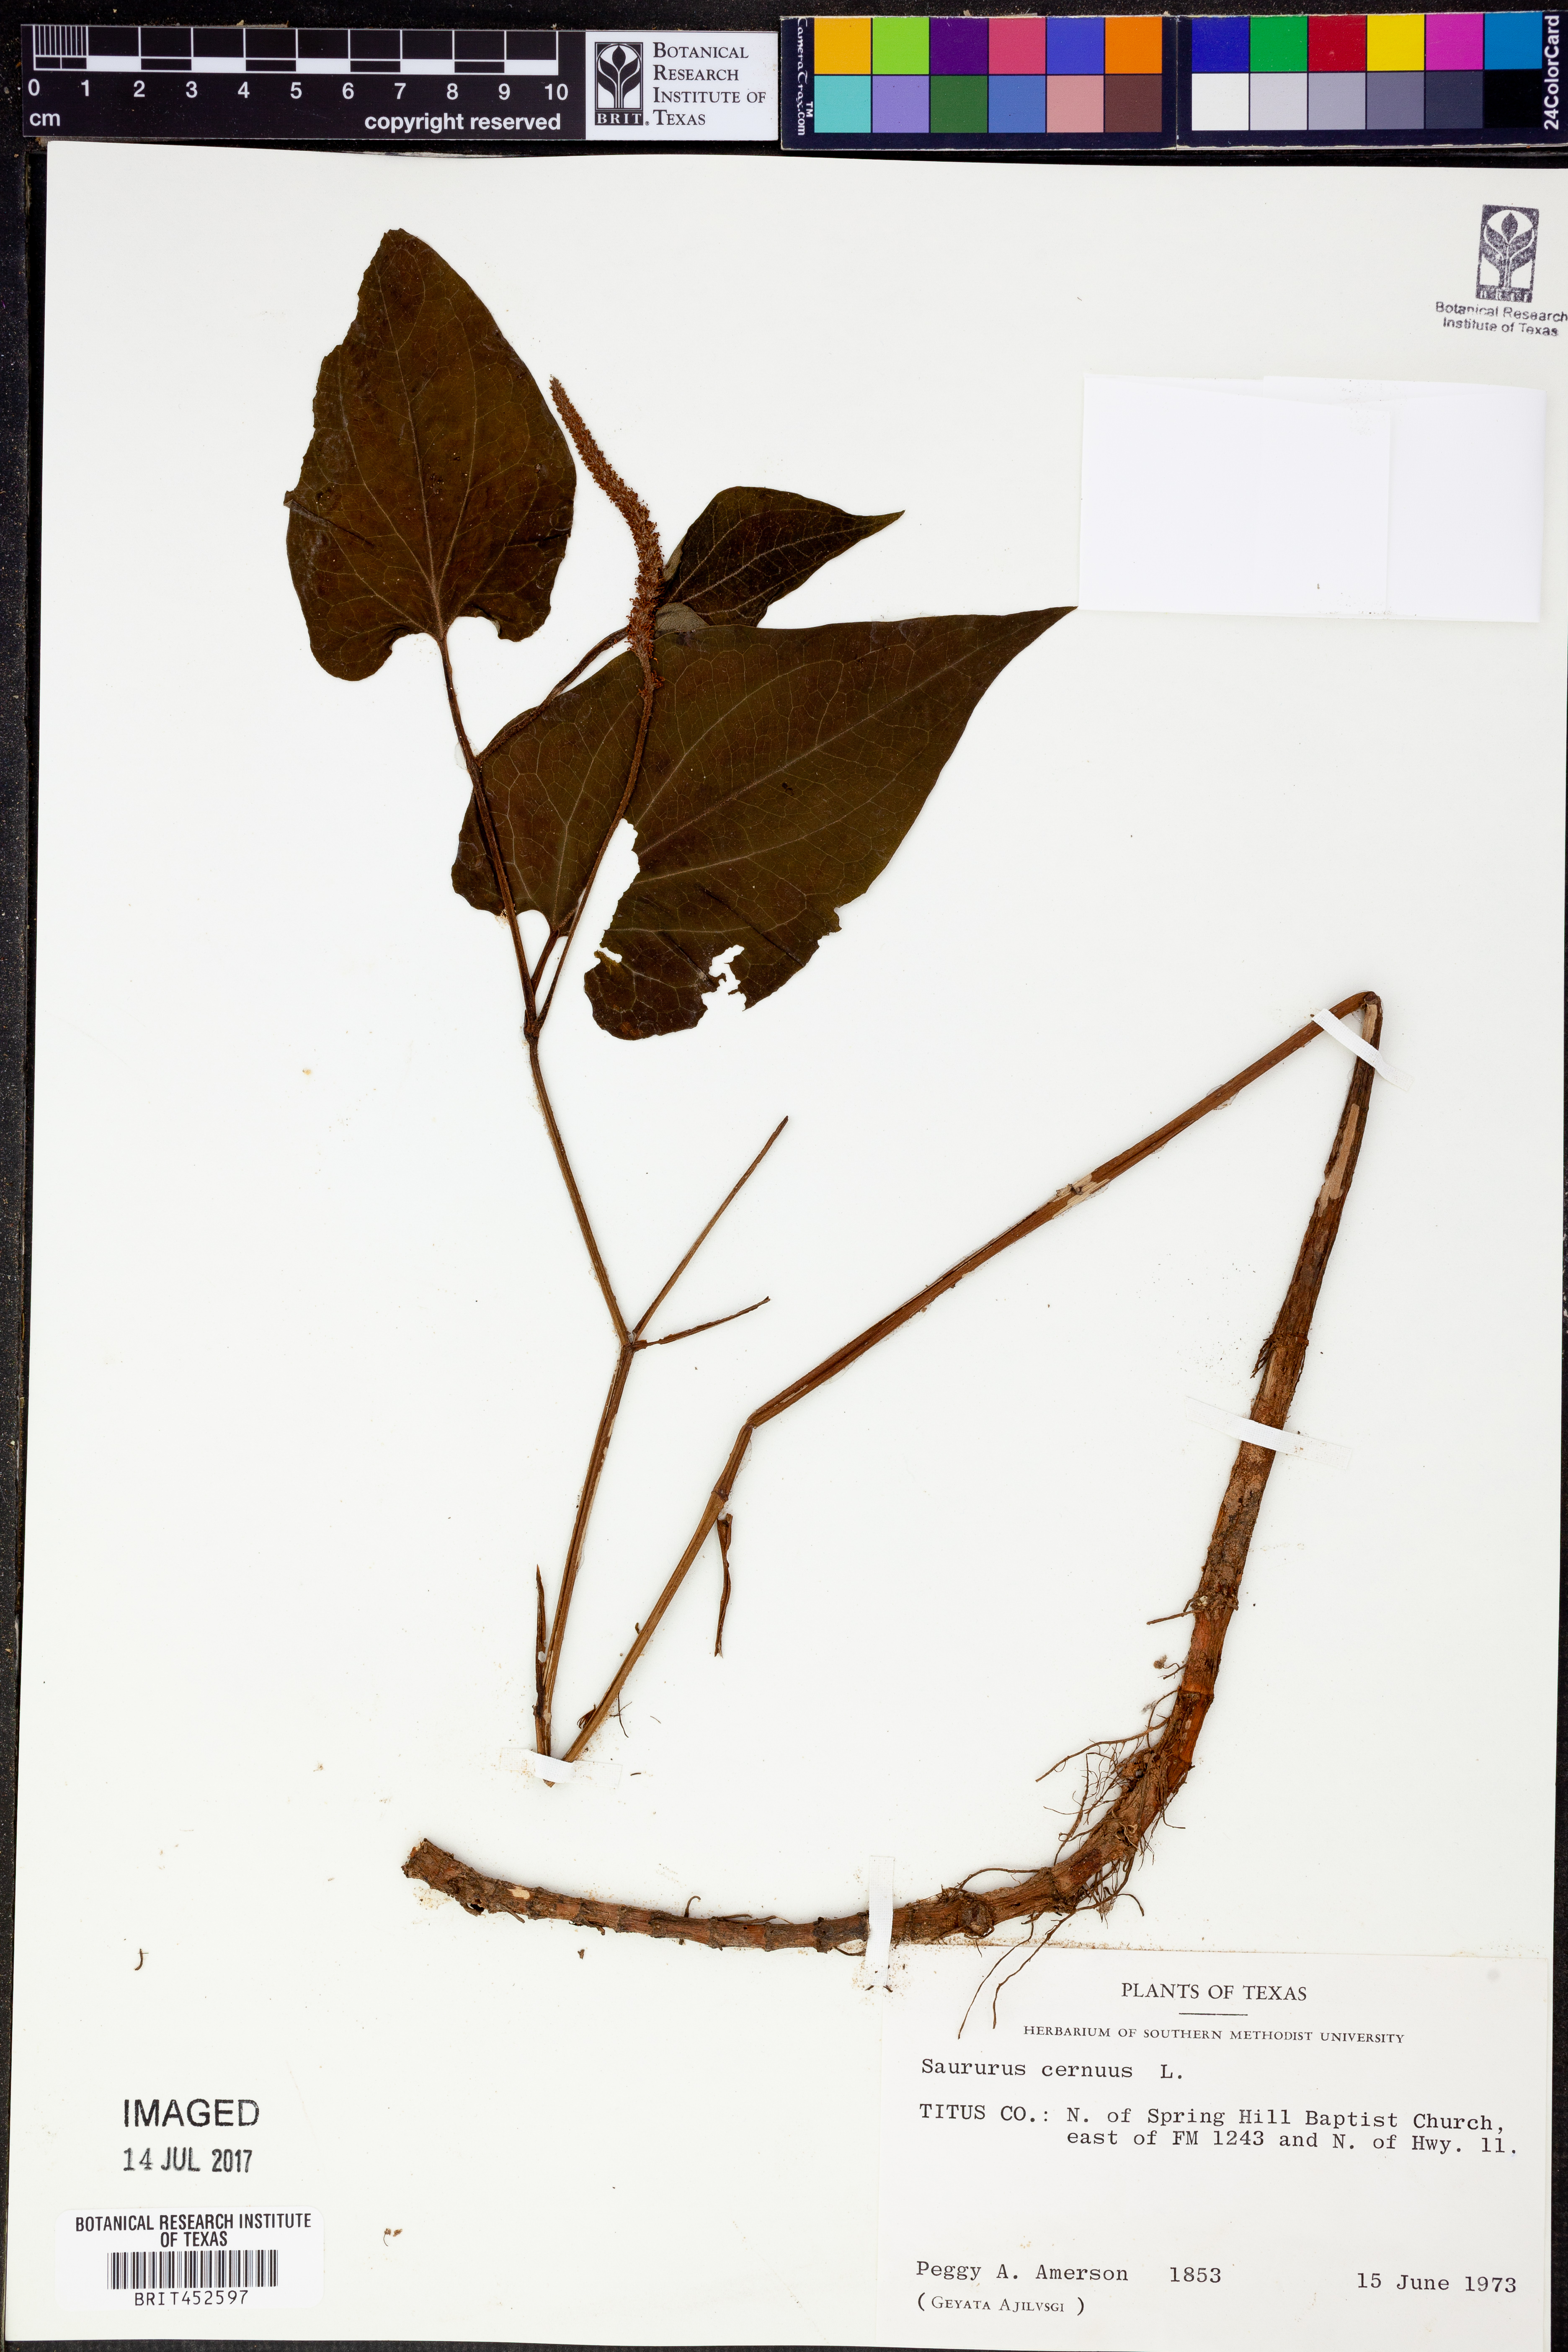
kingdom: Plantae
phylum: Tracheophyta
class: Magnoliopsida
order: Piperales
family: Saururaceae
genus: Saururus
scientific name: Saururus cernuus
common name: Lizard's-tail
